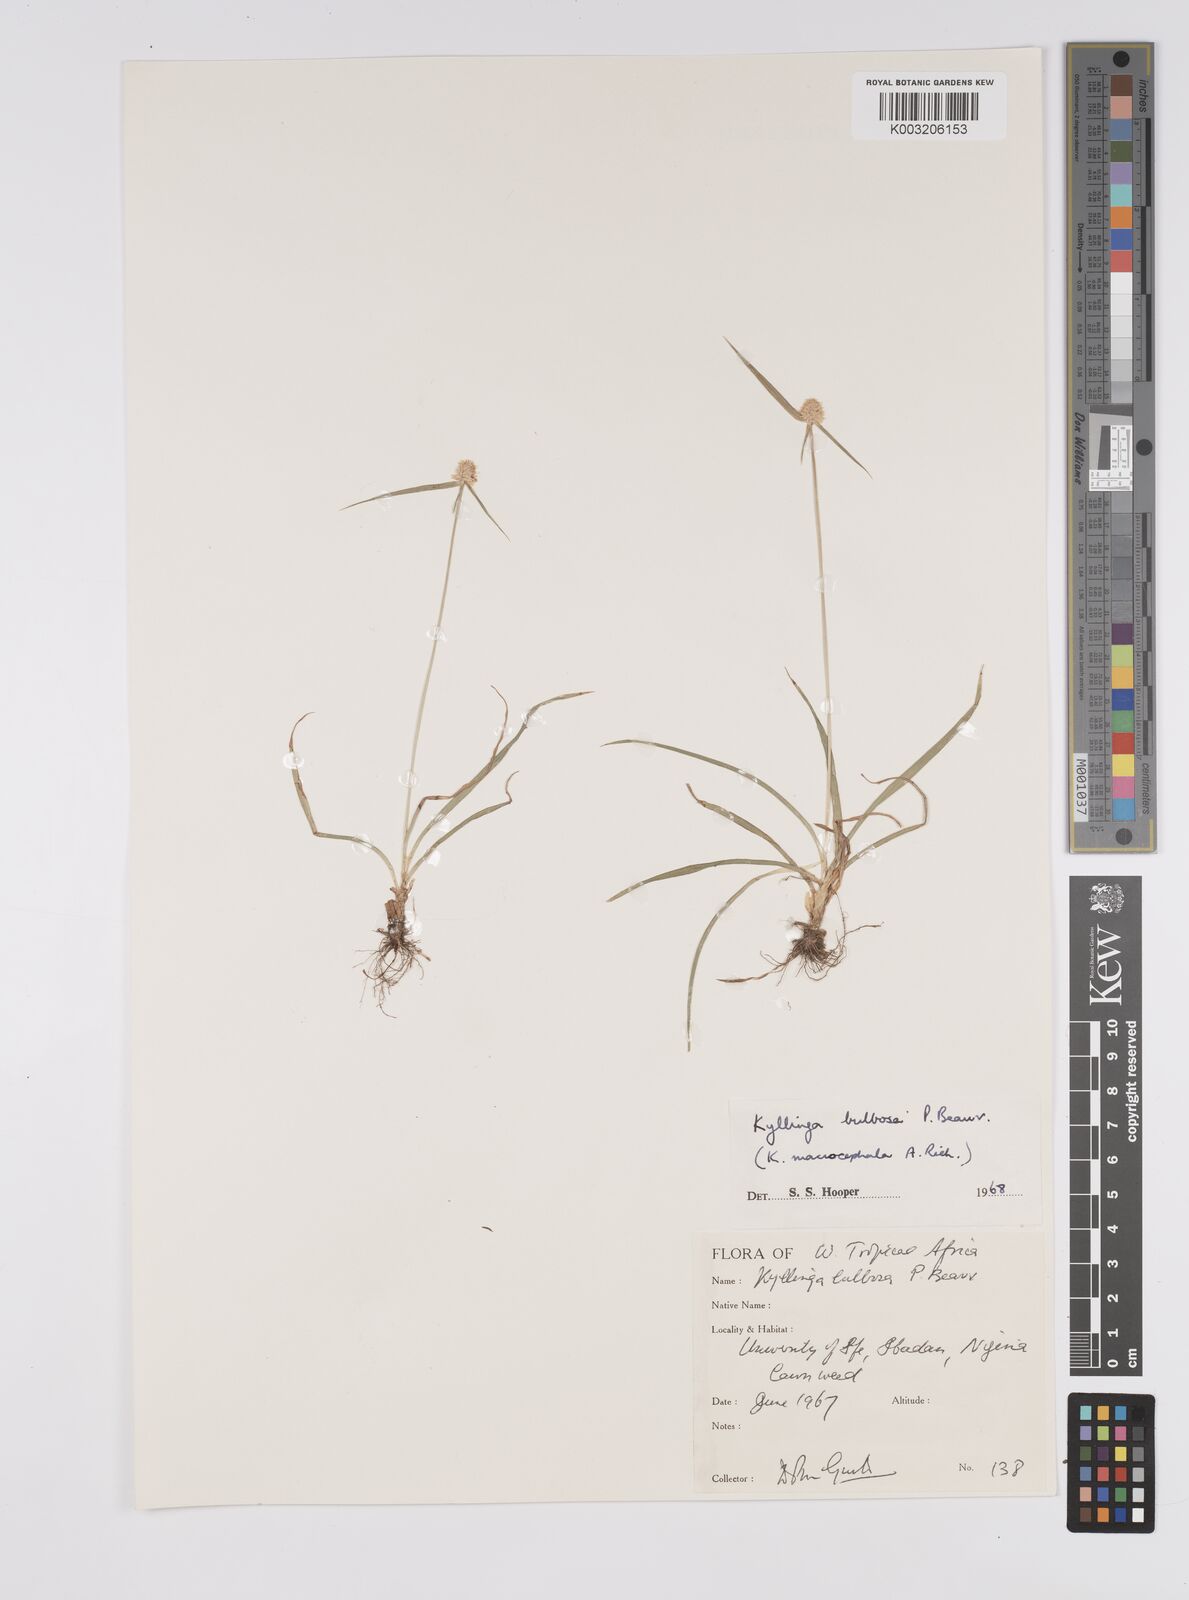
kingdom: Plantae
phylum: Tracheophyta
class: Liliopsida
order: Poales
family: Cyperaceae
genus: Cyperus
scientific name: Cyperus
